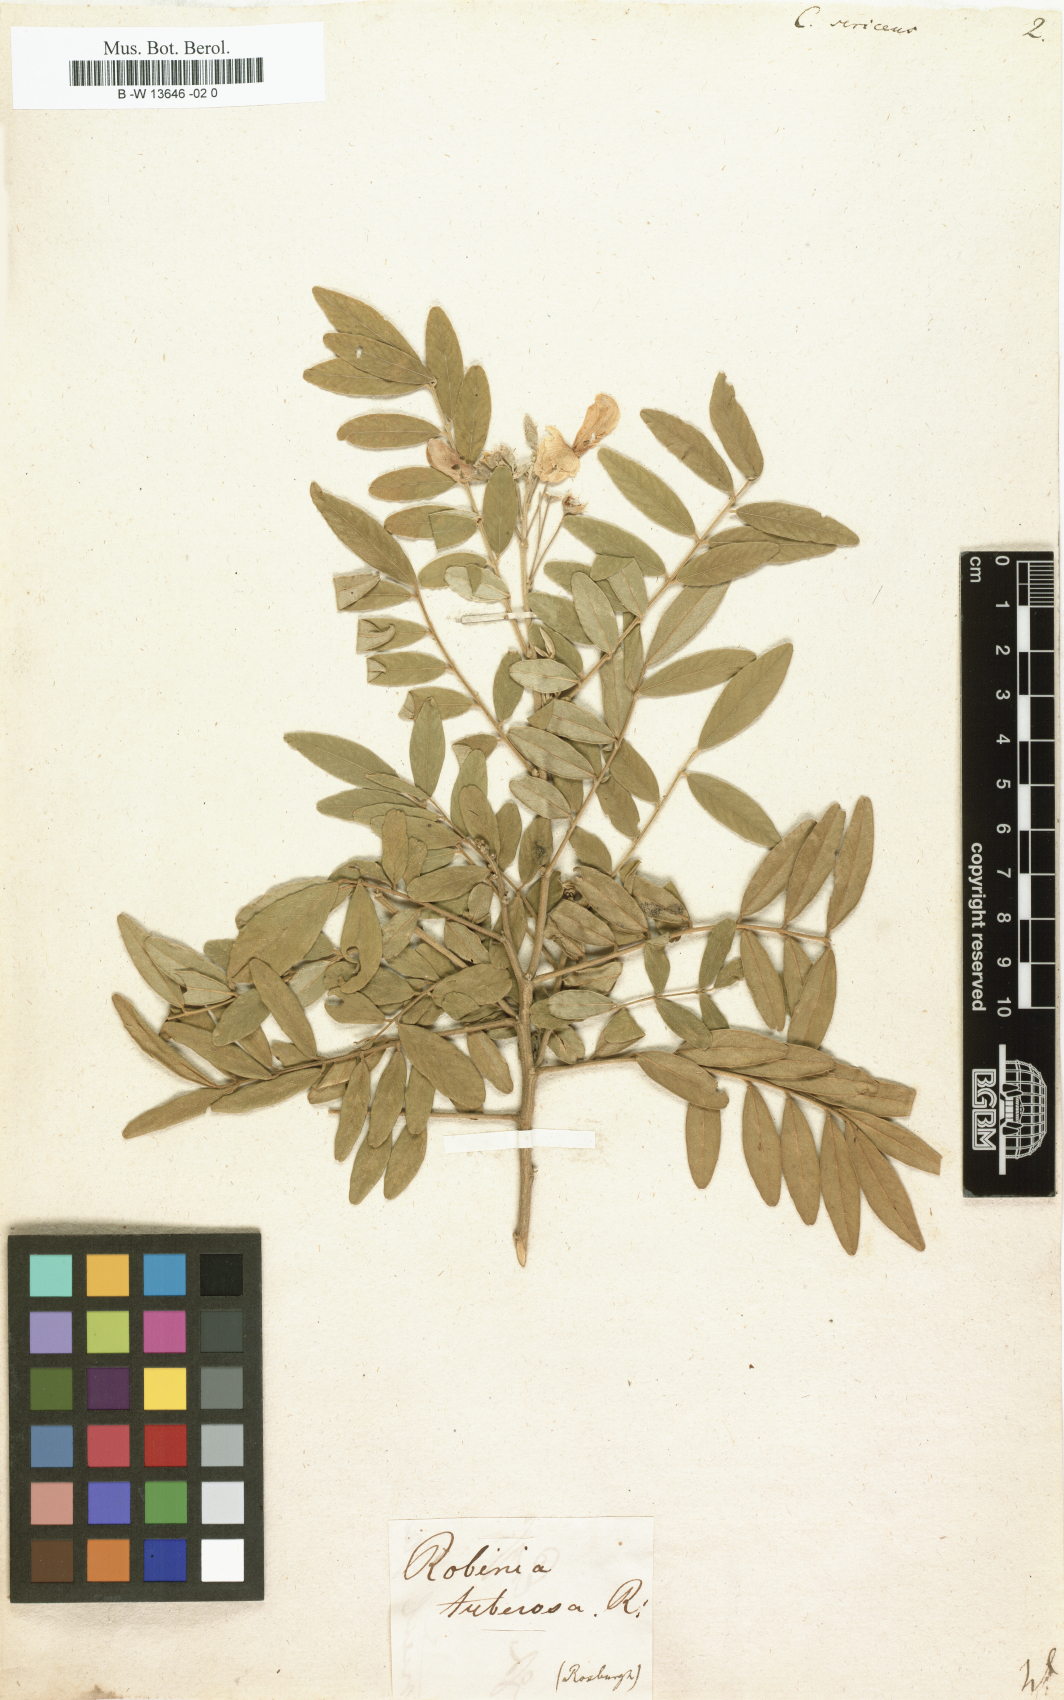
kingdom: Plantae
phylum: Tracheophyta
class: Magnoliopsida
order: Fabales
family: Fabaceae
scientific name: Fabaceae
